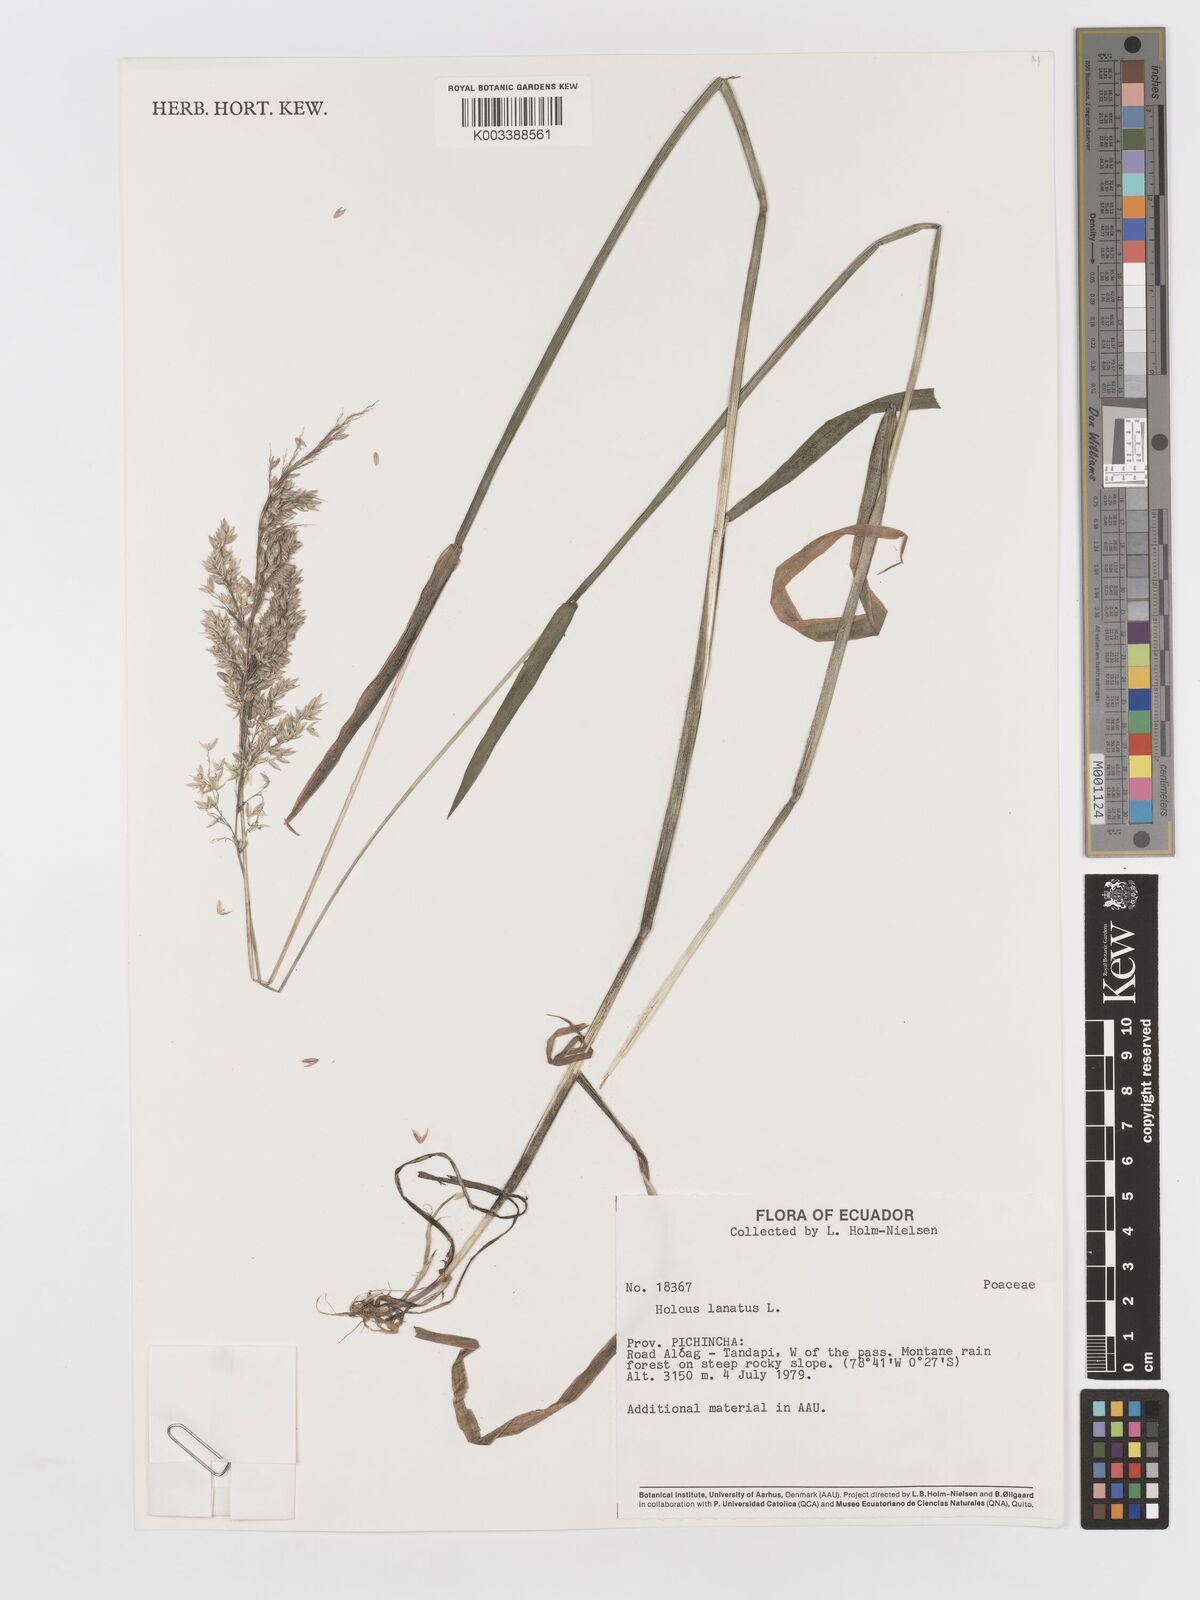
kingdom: Plantae
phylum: Tracheophyta
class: Liliopsida
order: Poales
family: Poaceae
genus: Holcus
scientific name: Holcus lanatus
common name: Yorkshire-fog
